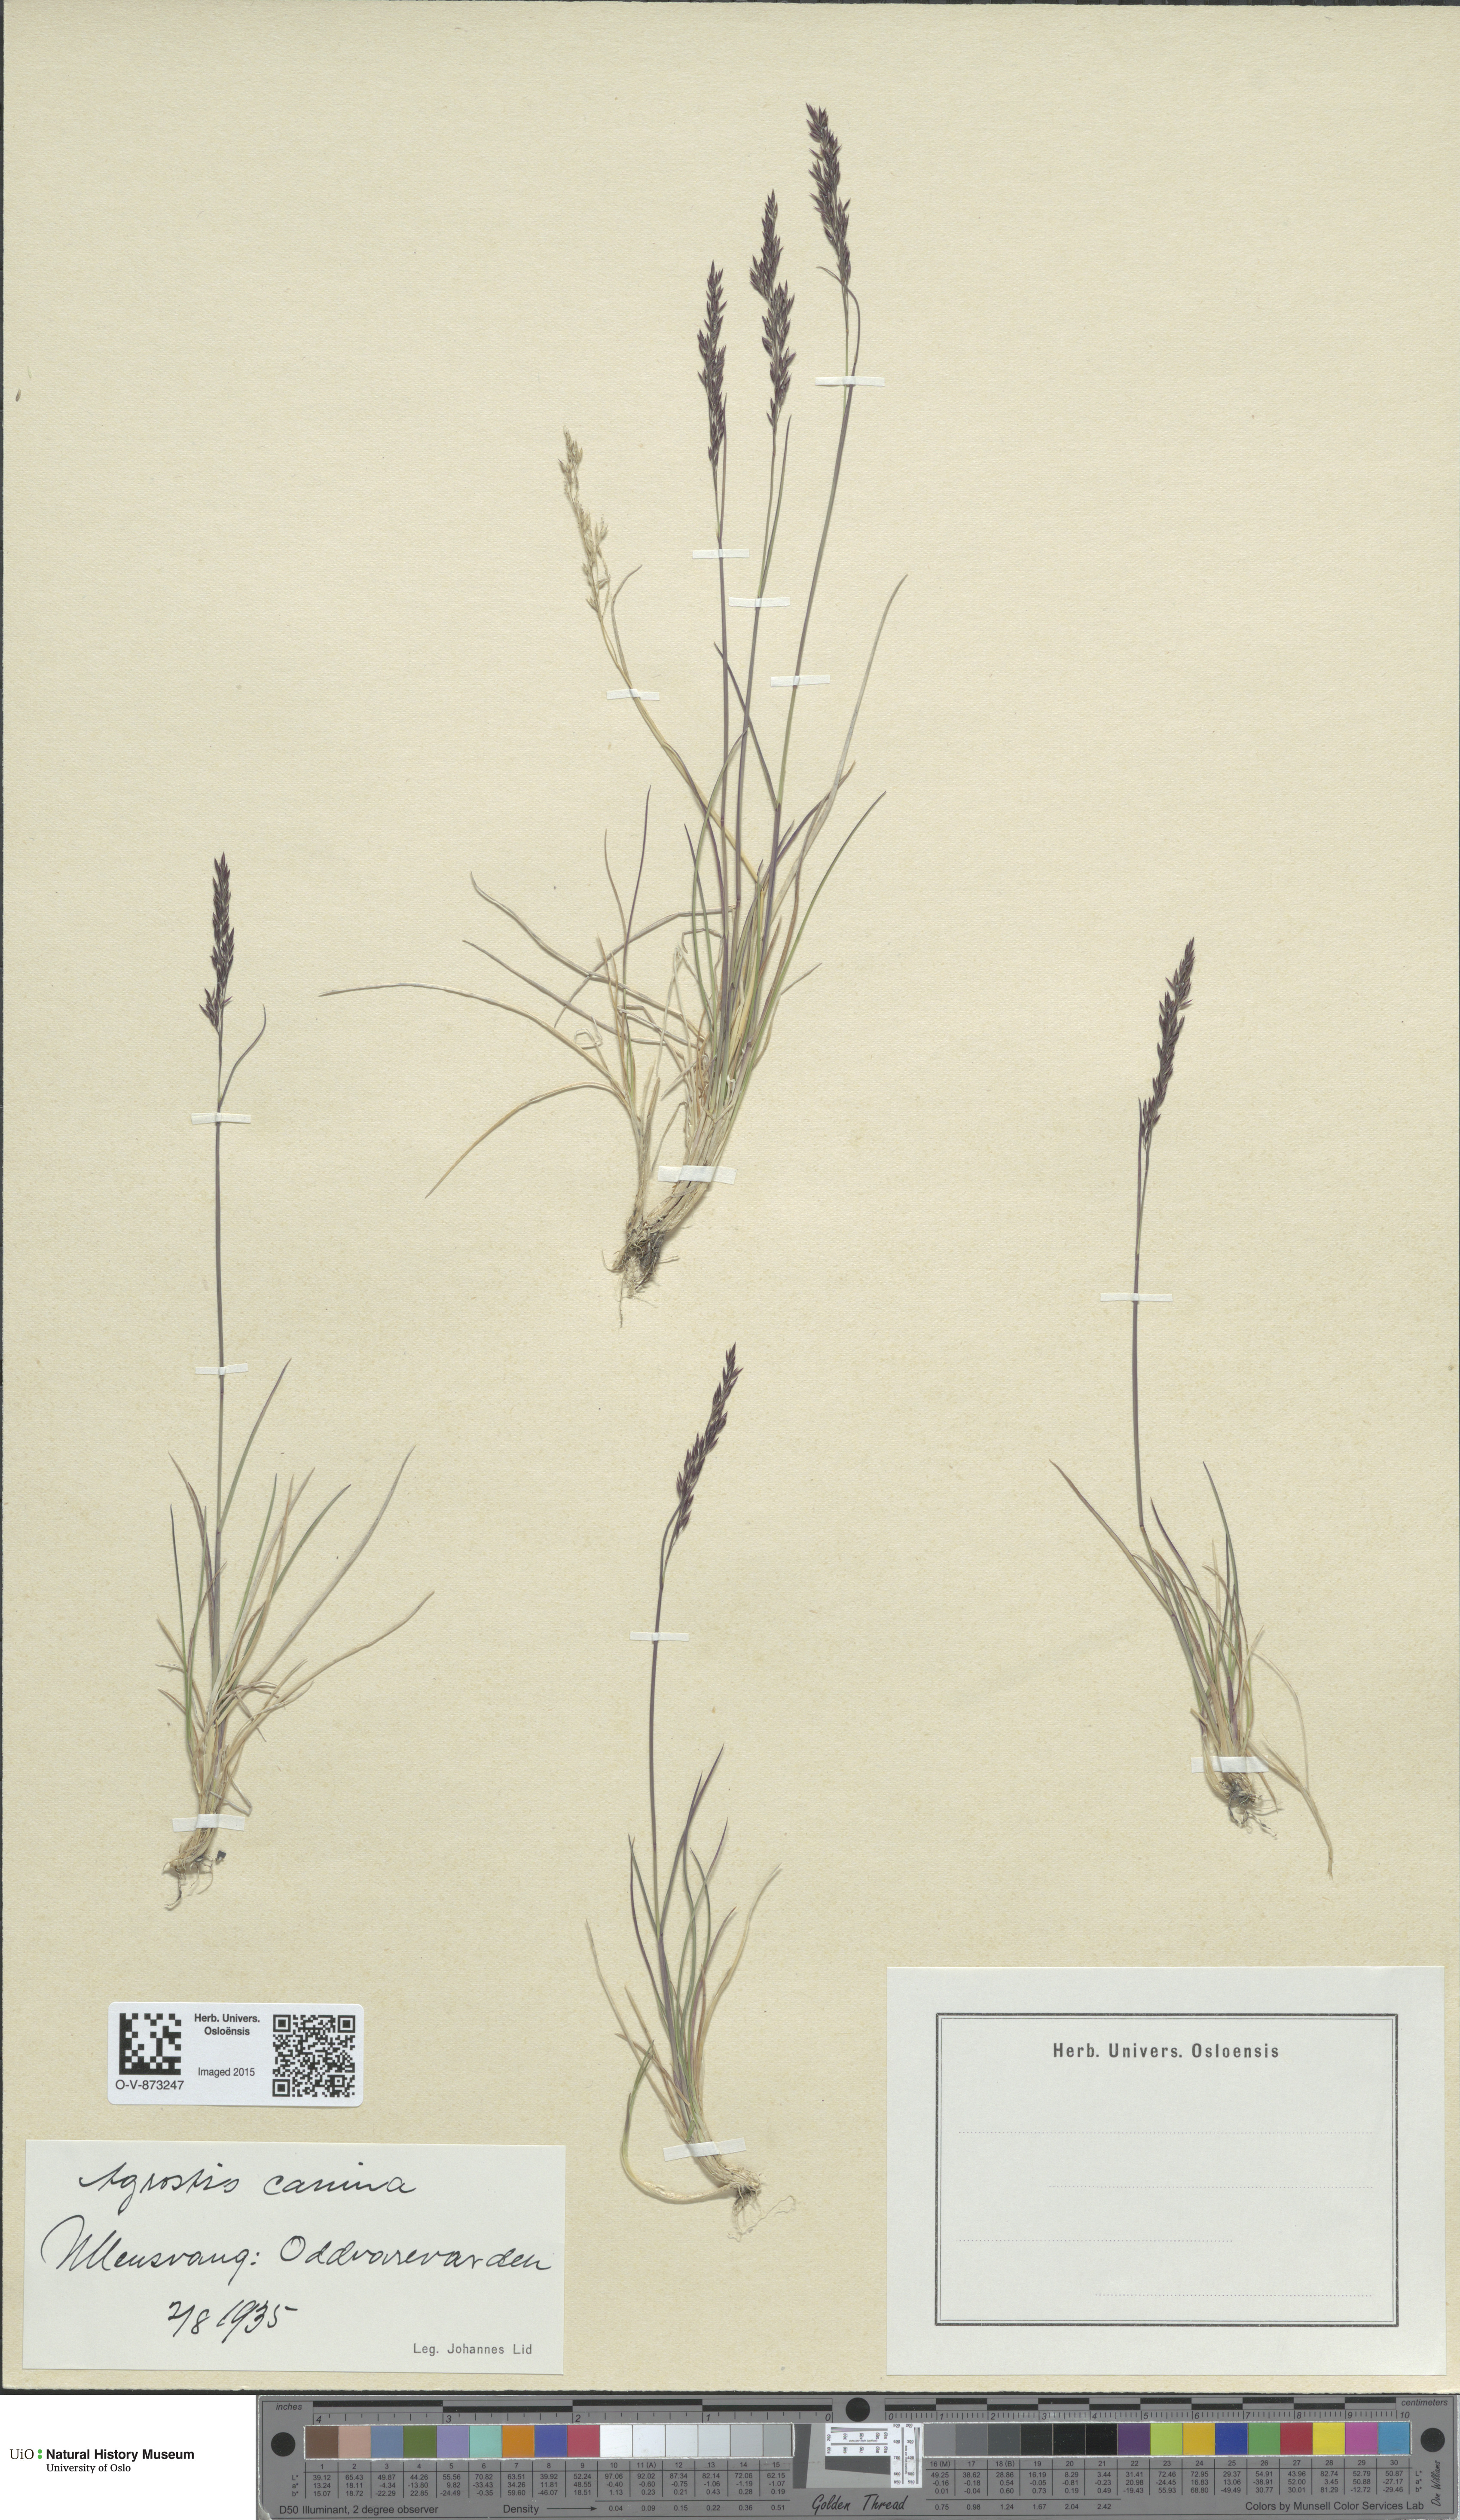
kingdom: Plantae
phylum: Tracheophyta
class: Liliopsida
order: Poales
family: Poaceae
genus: Agrostis
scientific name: Agrostis canina
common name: Velvet bent
